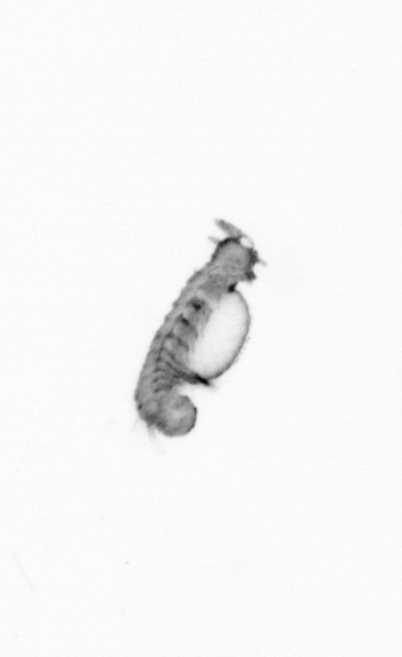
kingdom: Animalia
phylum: Annelida
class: Polychaeta
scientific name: Polychaeta
